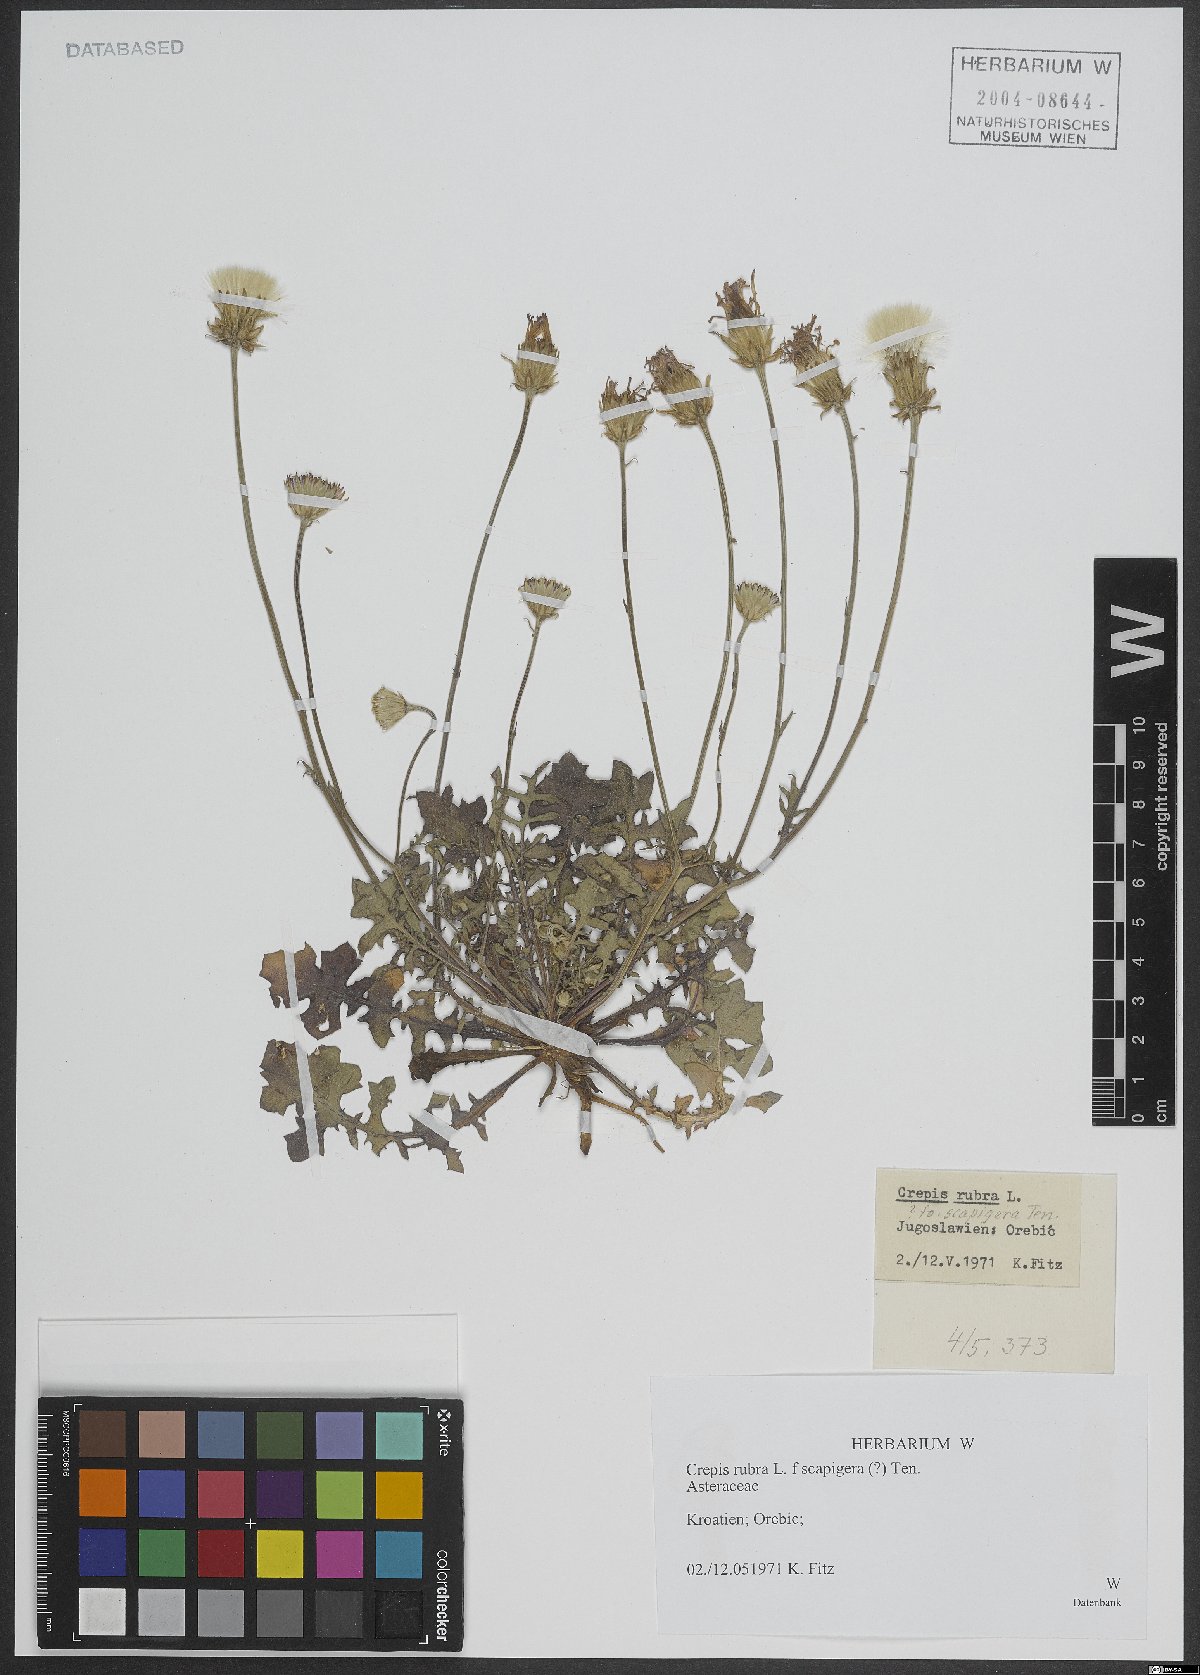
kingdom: Plantae
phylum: Tracheophyta
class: Magnoliopsida
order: Asterales
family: Asteraceae
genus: Crepis
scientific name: Crepis rubra
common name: Pink hawk's-beard
